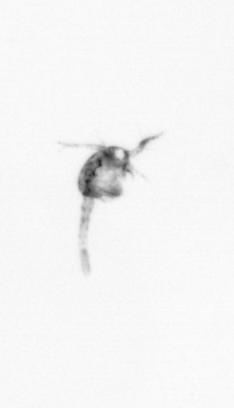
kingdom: Animalia
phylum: Arthropoda
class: Copepoda
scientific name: Copepoda
